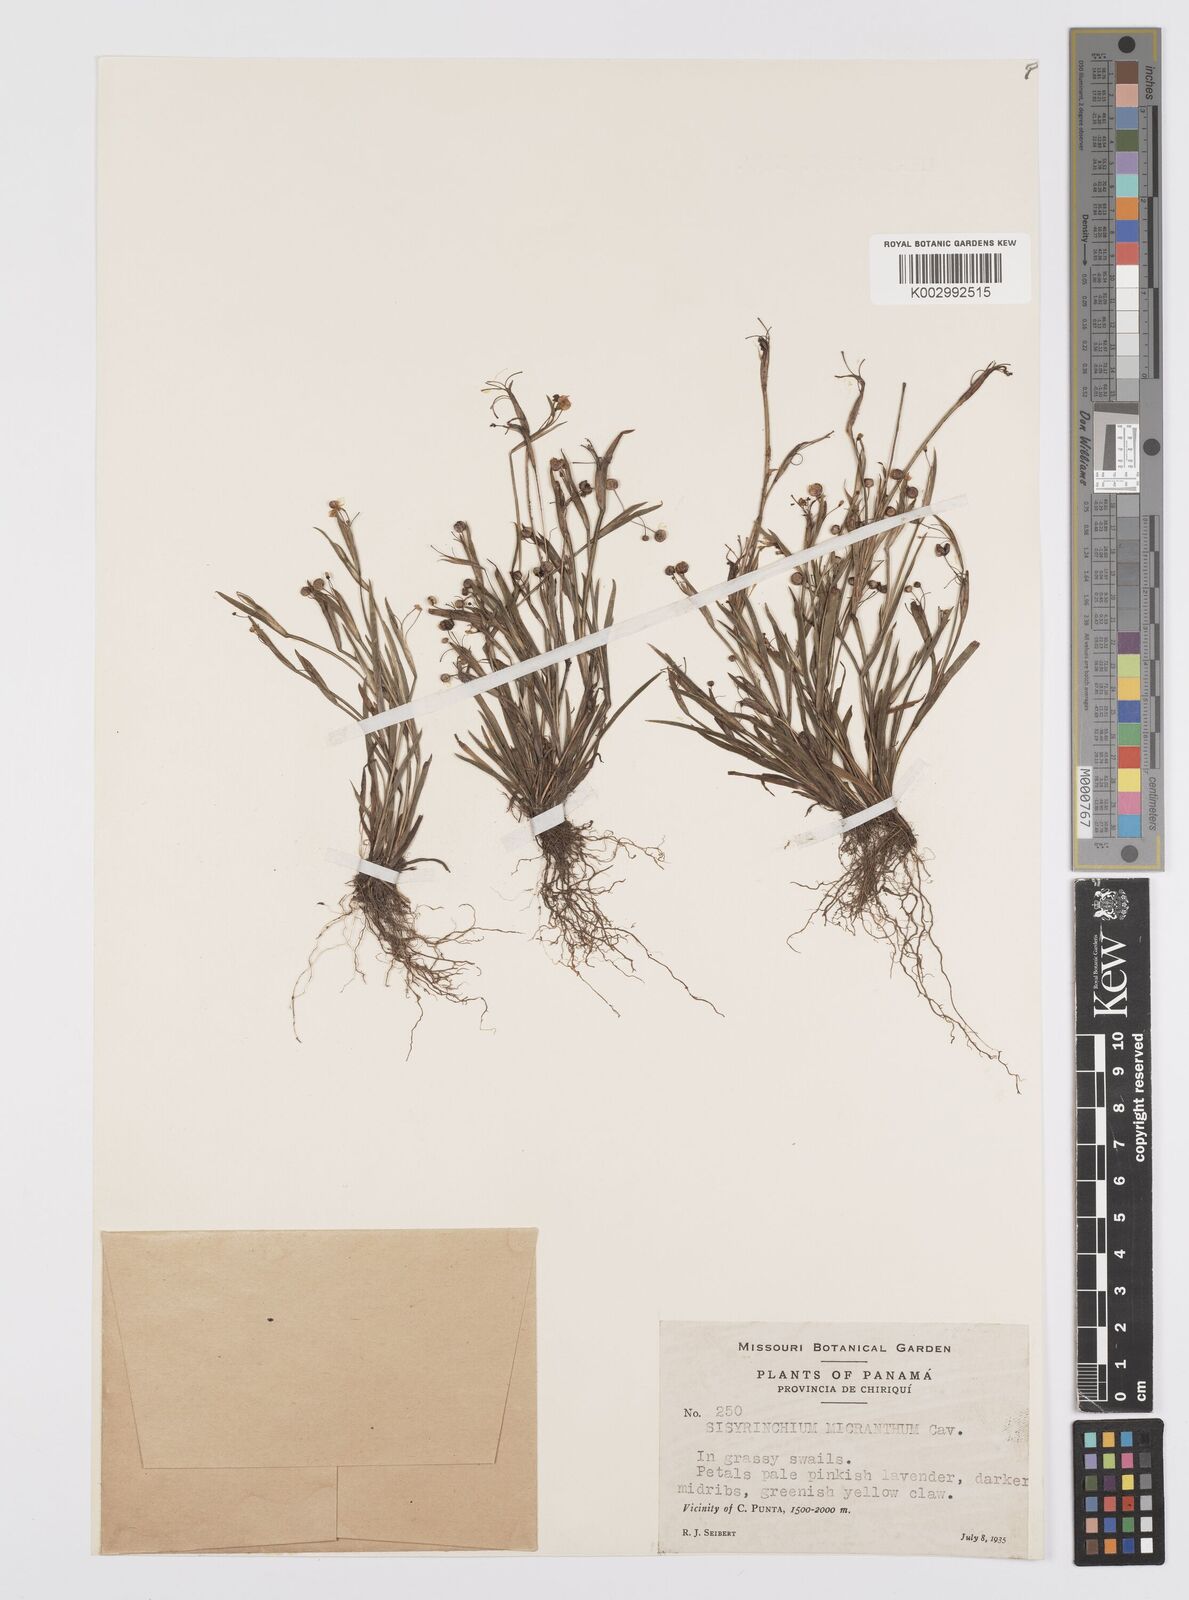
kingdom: Plantae
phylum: Tracheophyta
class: Liliopsida
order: Asparagales
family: Iridaceae
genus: Sisyrinchium
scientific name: Sisyrinchium micranthum
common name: Bermuda pigroot
